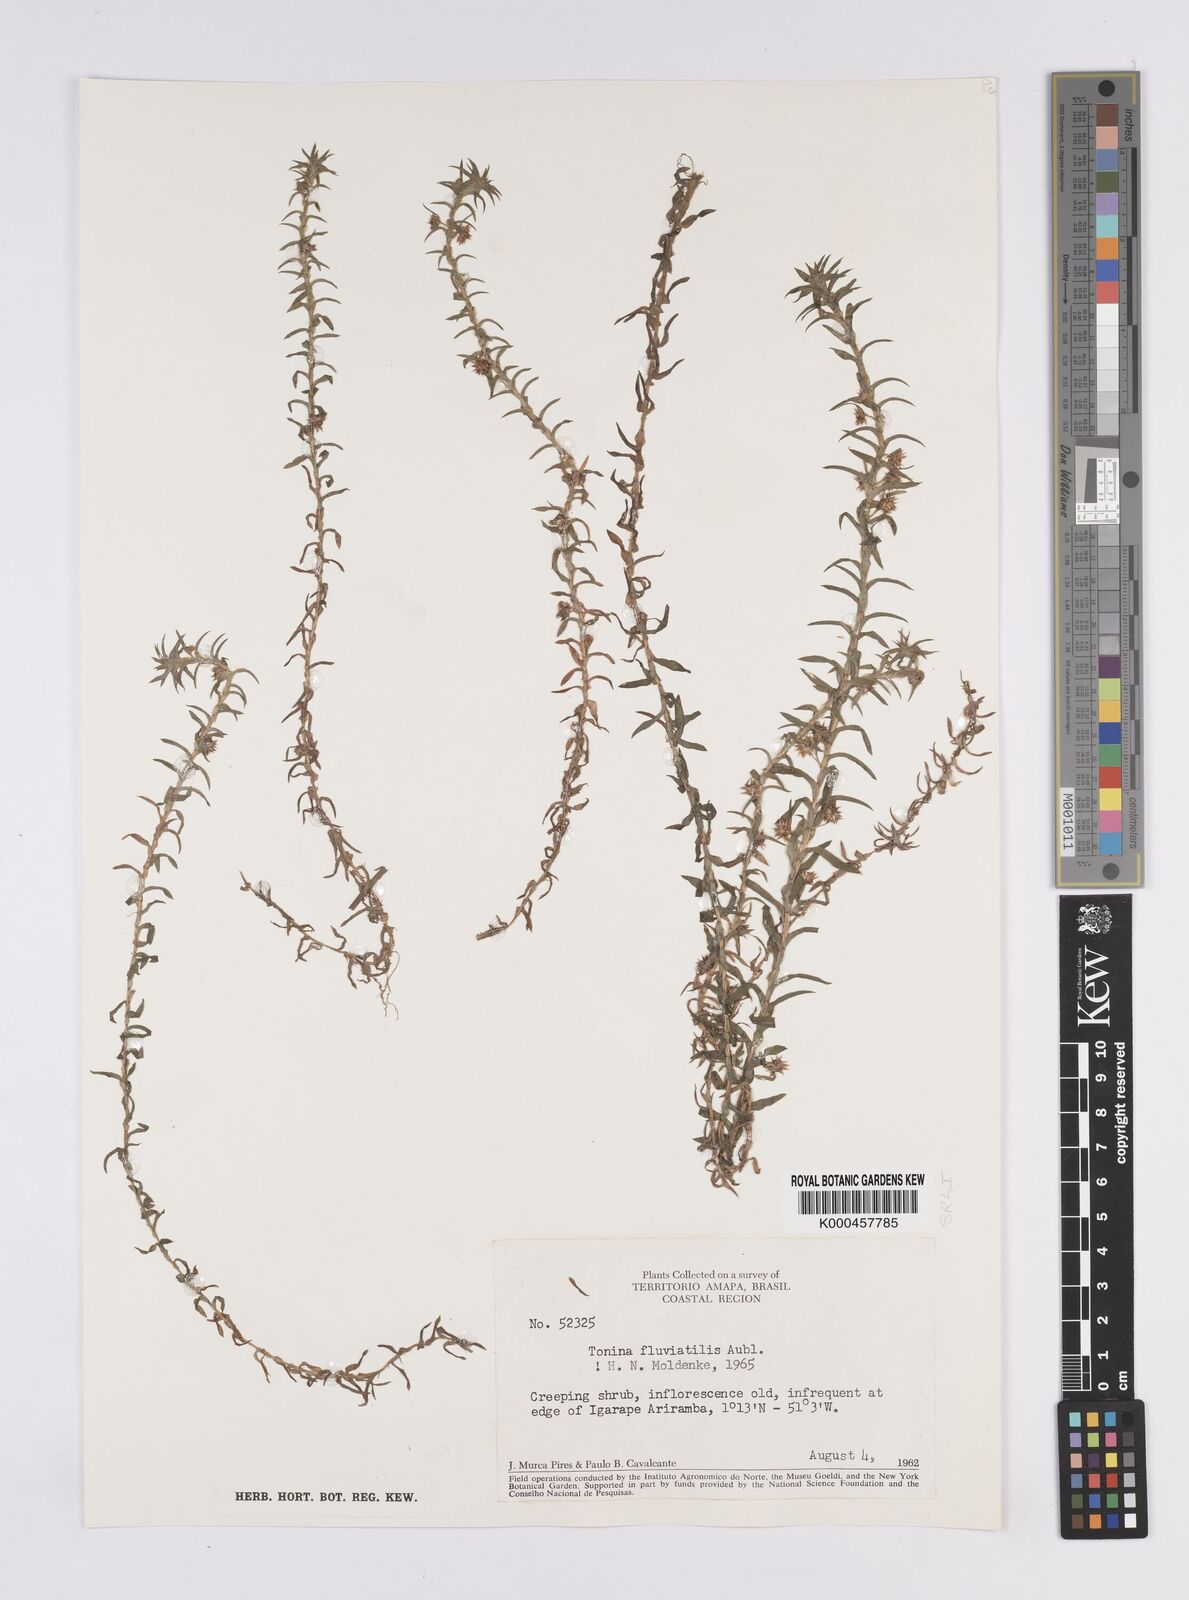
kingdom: Plantae
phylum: Tracheophyta
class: Liliopsida
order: Poales
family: Eriocaulaceae
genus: Paepalanthus
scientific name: Paepalanthus fluviatilis
